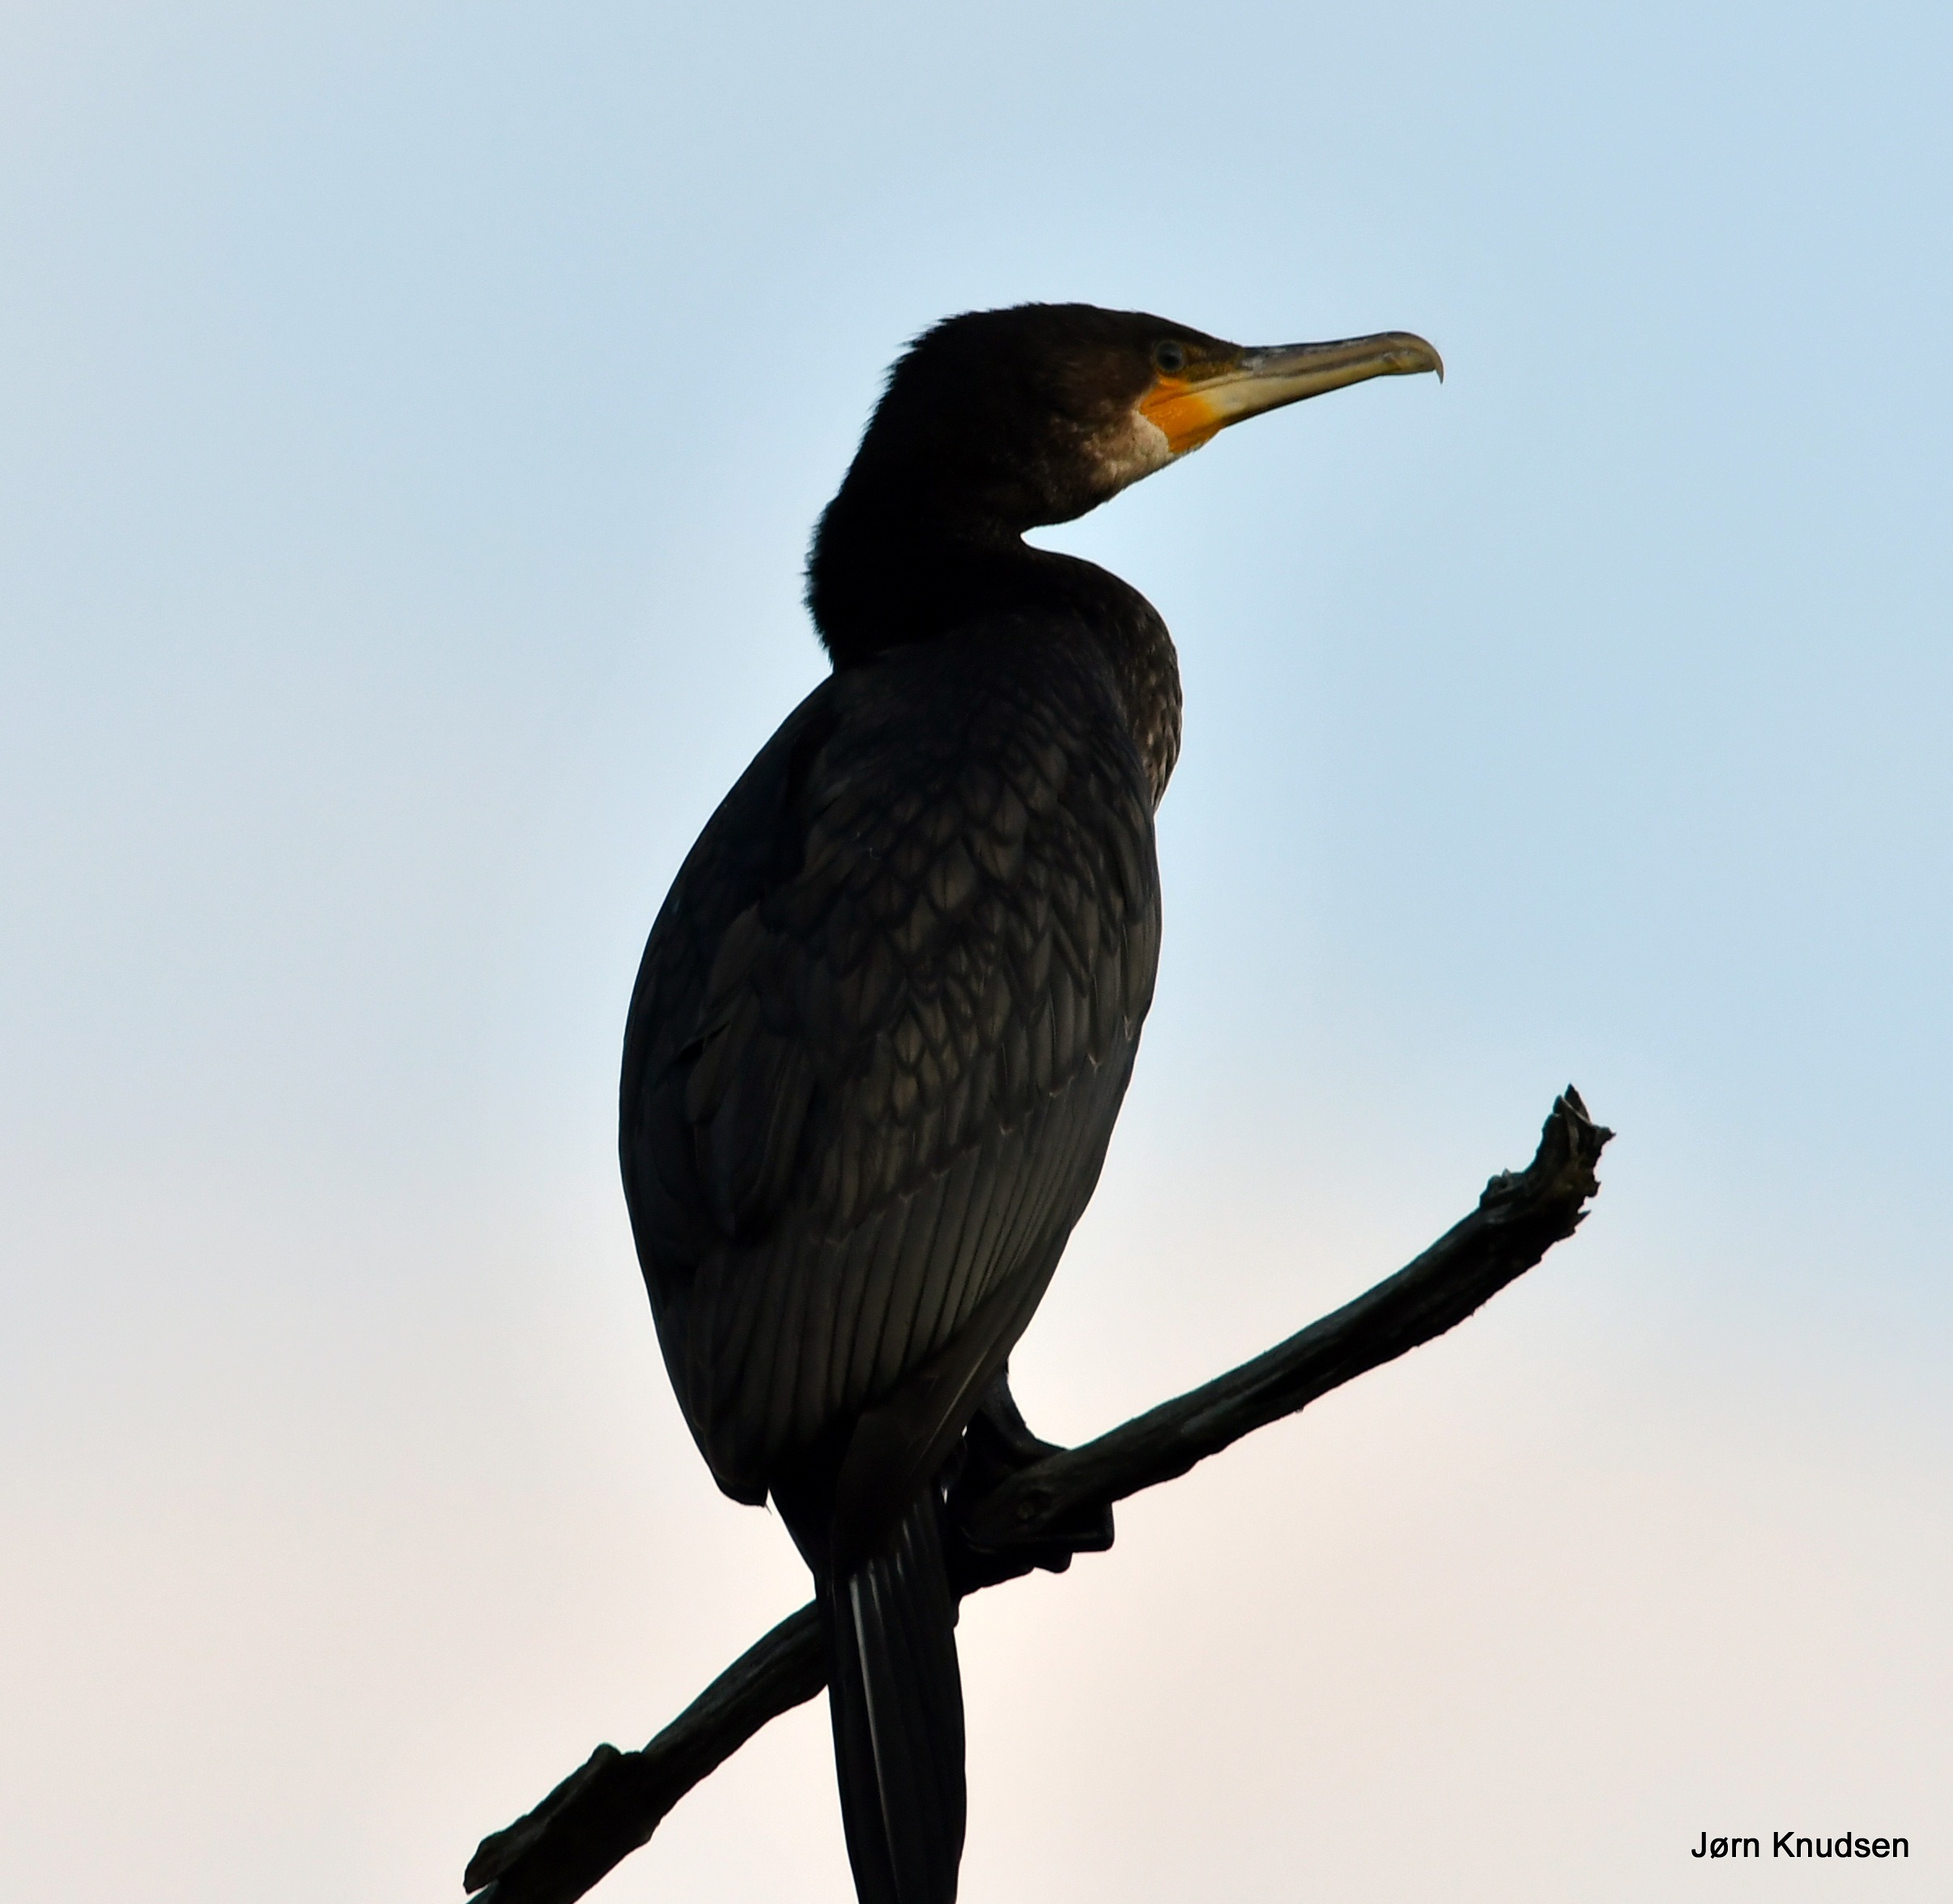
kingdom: Animalia
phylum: Chordata
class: Aves
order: Suliformes
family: Phalacrocoracidae
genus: Phalacrocorax
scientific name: Phalacrocorax carbo
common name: Skarv
